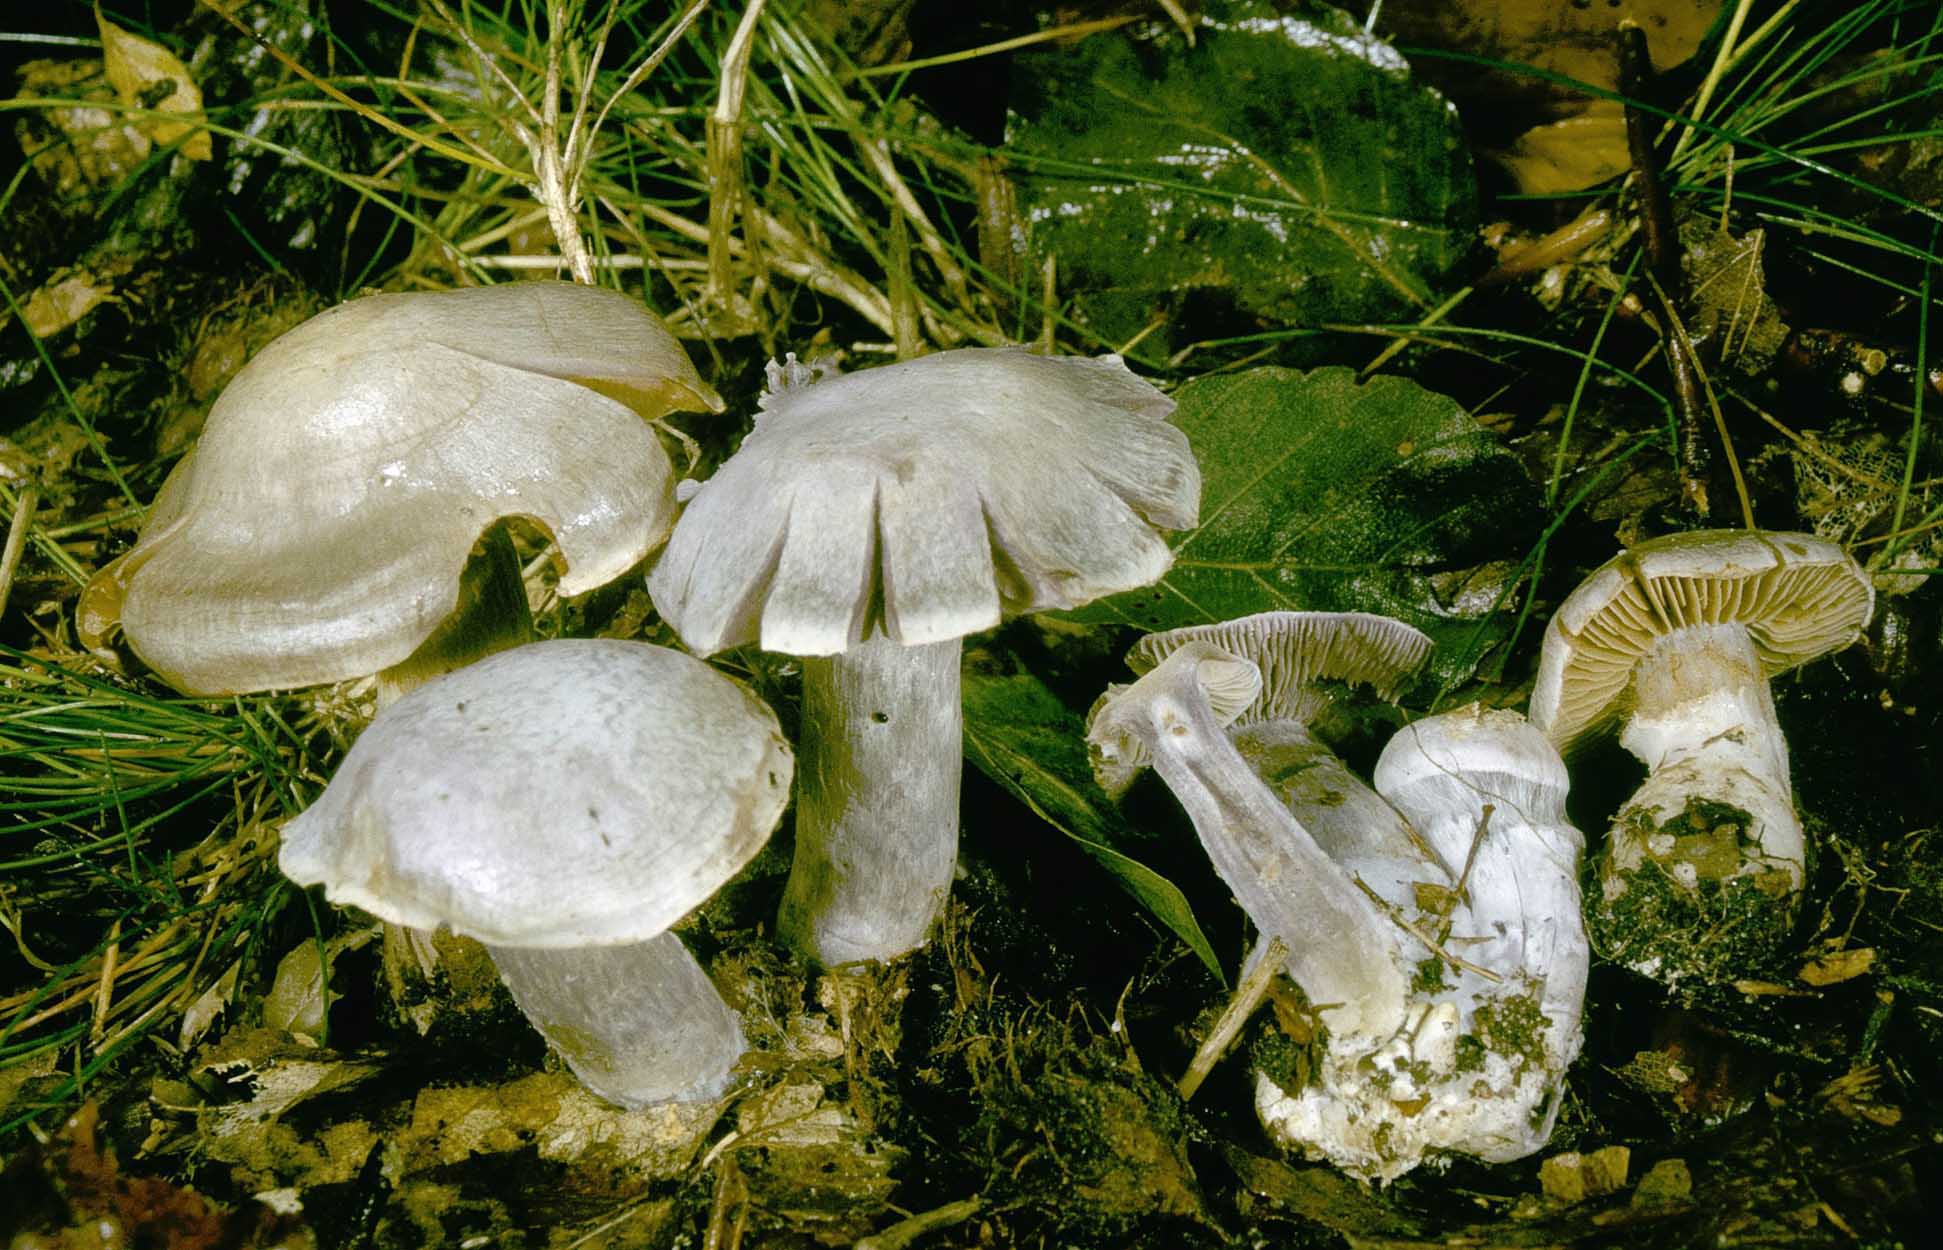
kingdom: Fungi
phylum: Basidiomycota
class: Agaricomycetes
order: Agaricales
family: Cortinariaceae
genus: Cortinarius
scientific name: Cortinarius alboviolaceus
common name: lysviolet slørhat
